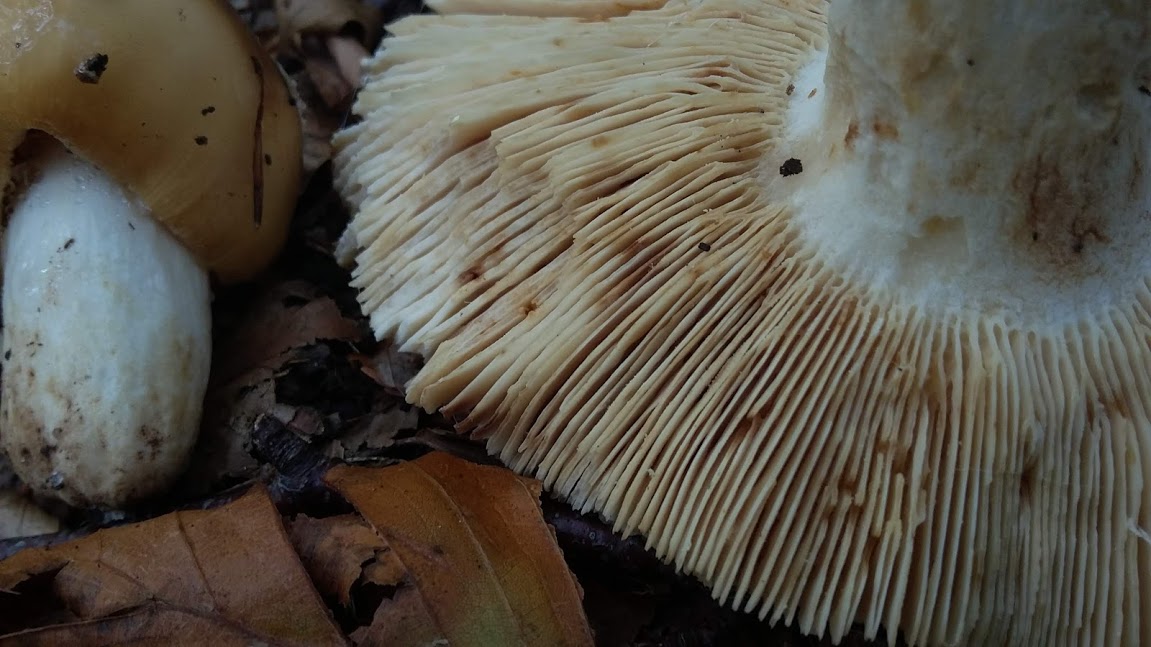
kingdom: Fungi
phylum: Basidiomycota
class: Agaricomycetes
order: Russulales
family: Russulaceae
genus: Russula
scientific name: Russula
